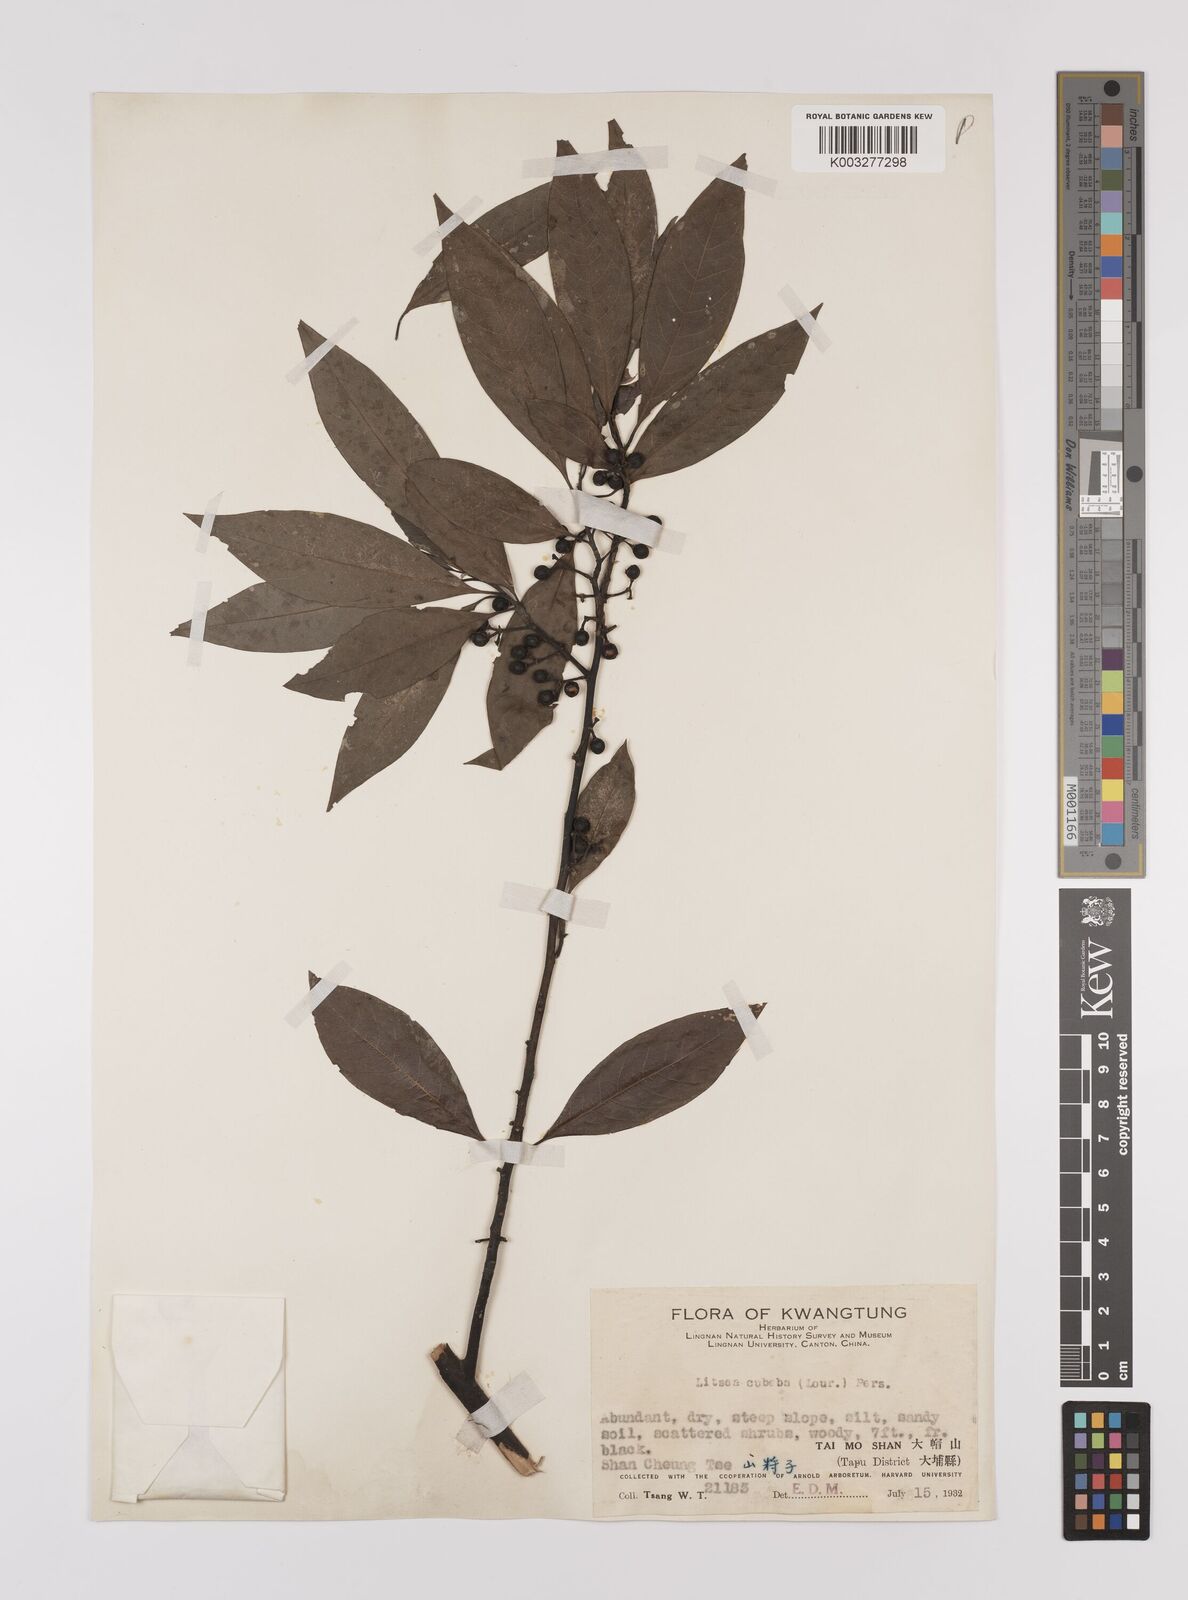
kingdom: Plantae
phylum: Tracheophyta
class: Magnoliopsida
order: Laurales
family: Lauraceae
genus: Litsea
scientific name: Litsea cubeba
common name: Mountain-pepper
